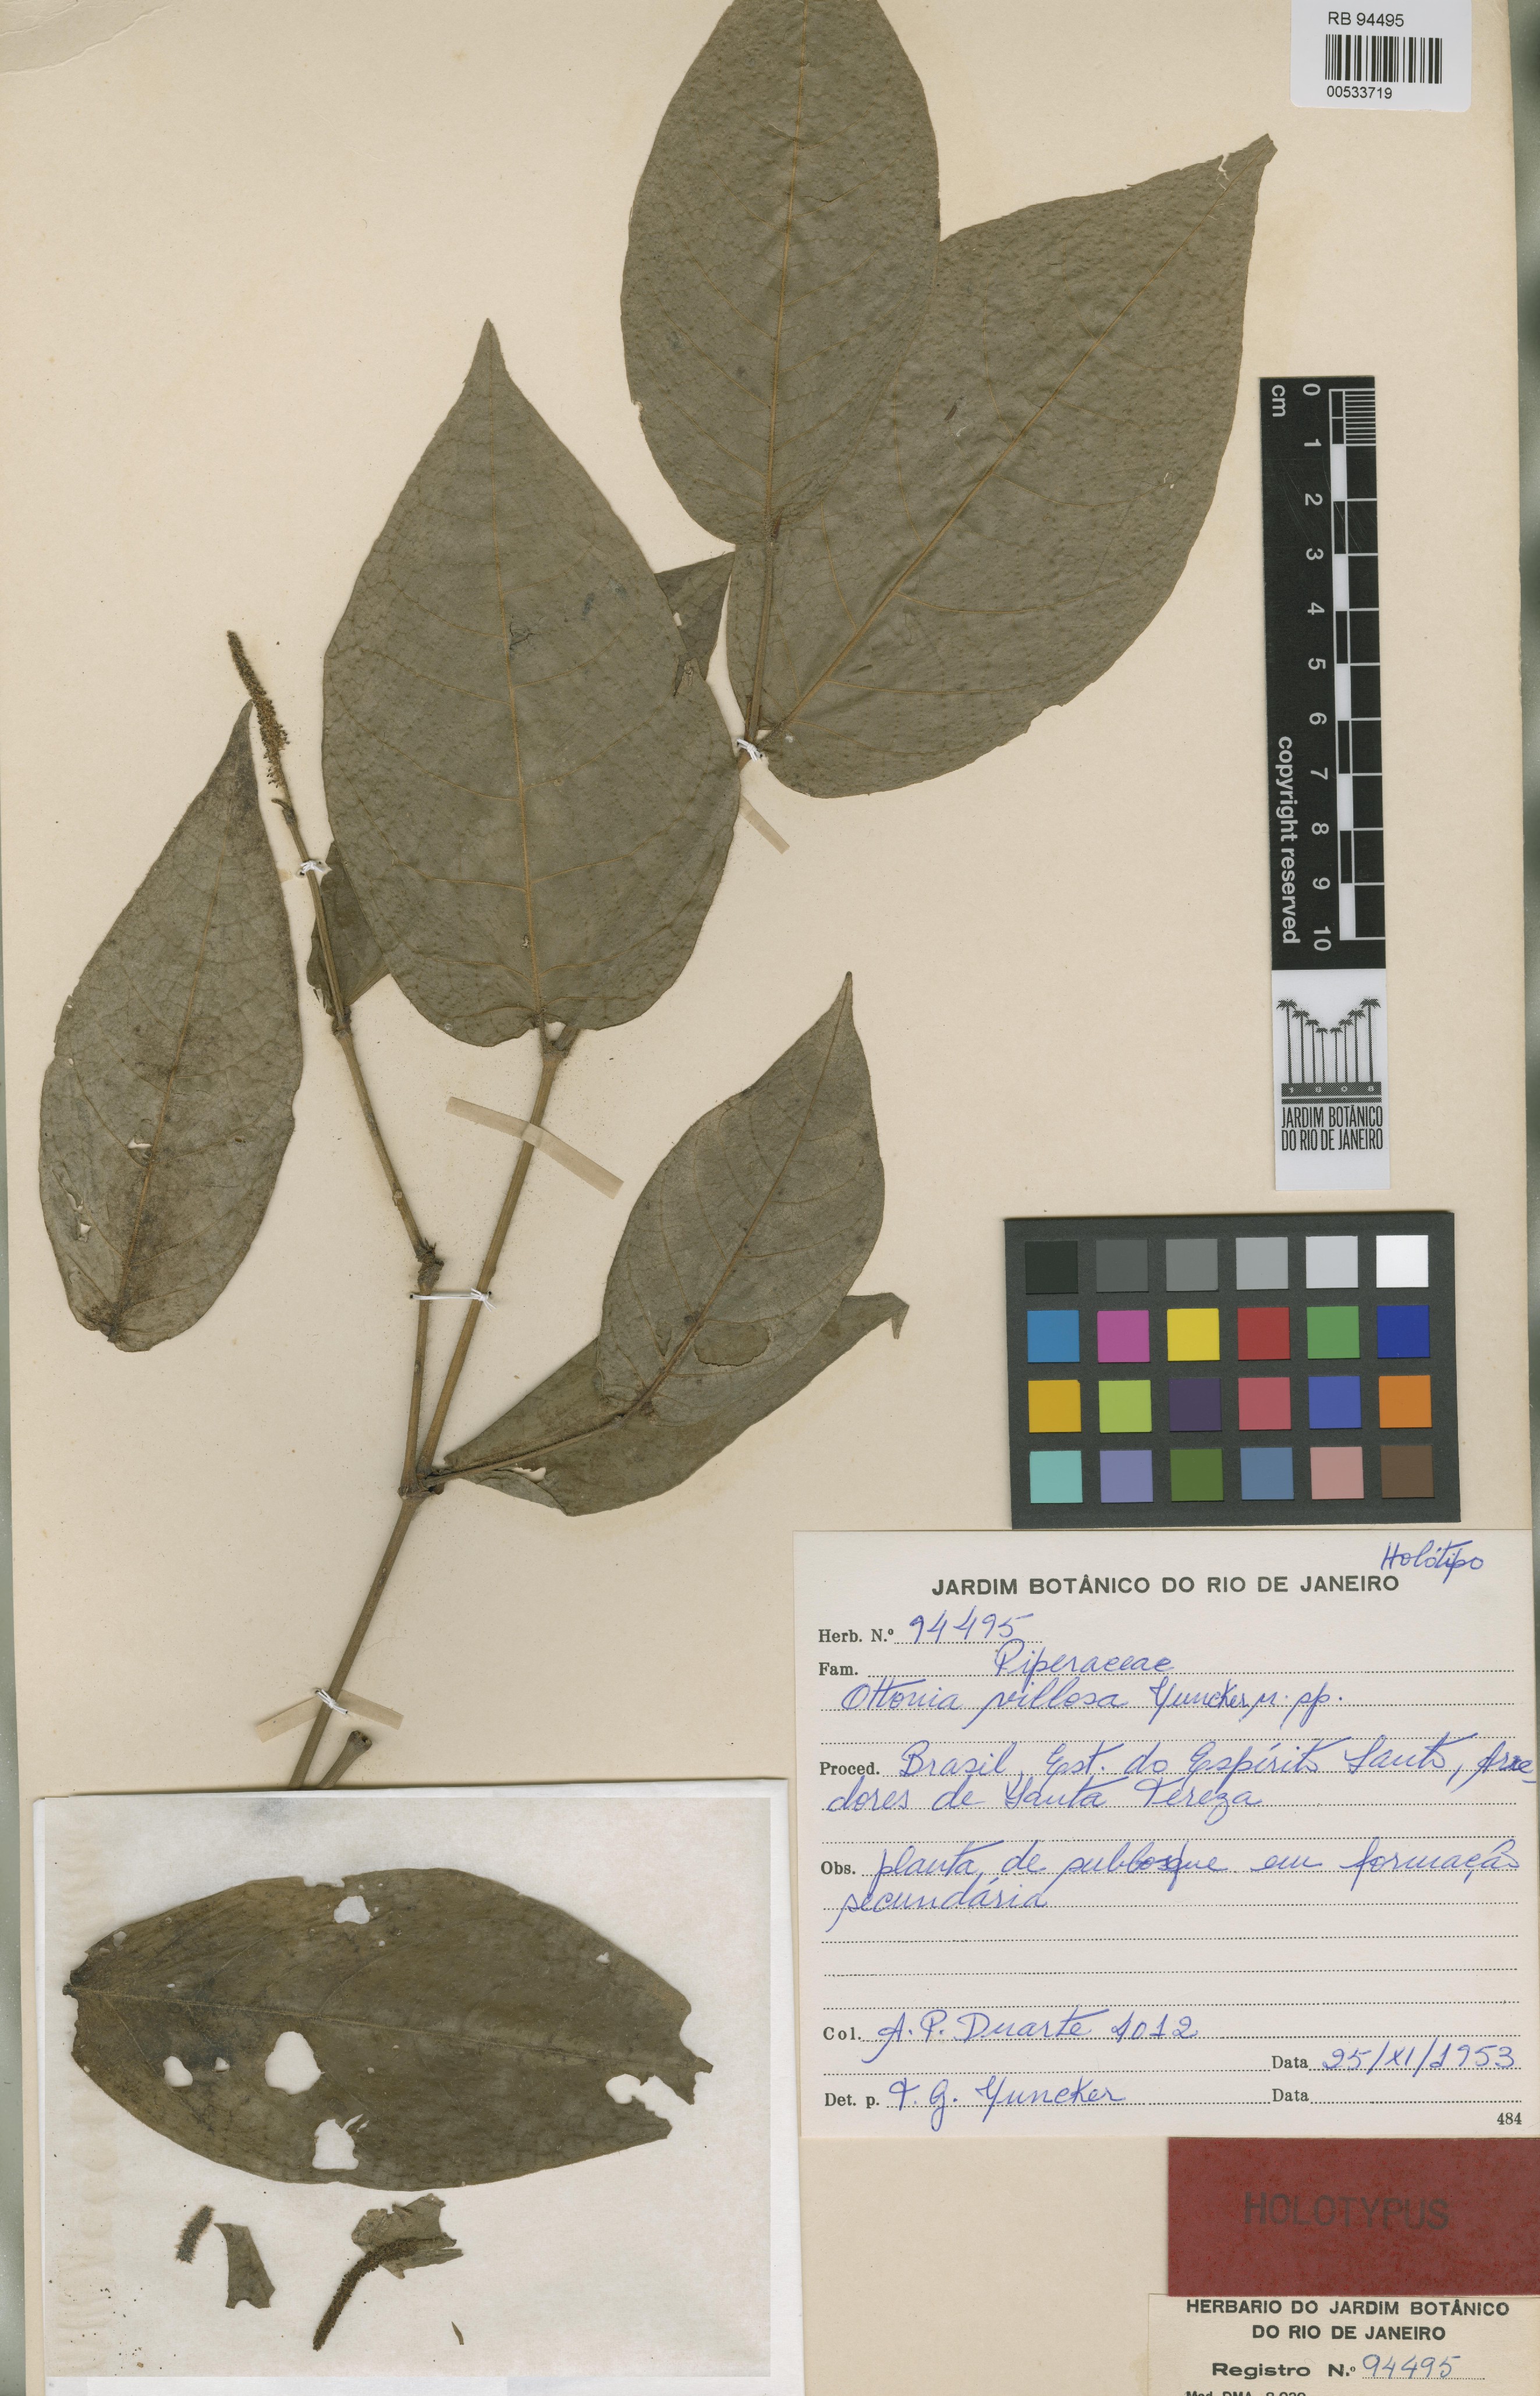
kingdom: Plantae
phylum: Tracheophyta
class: Magnoliopsida
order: Piperales
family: Piperaceae
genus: Piper
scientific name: Piper duartei
